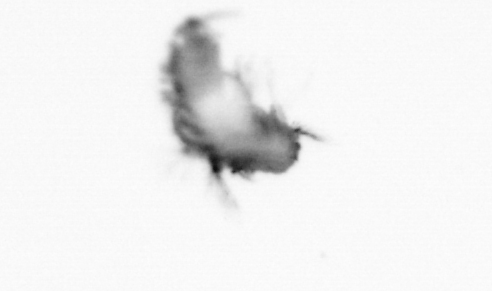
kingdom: Animalia
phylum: Annelida
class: Polychaeta
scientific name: Polychaeta
